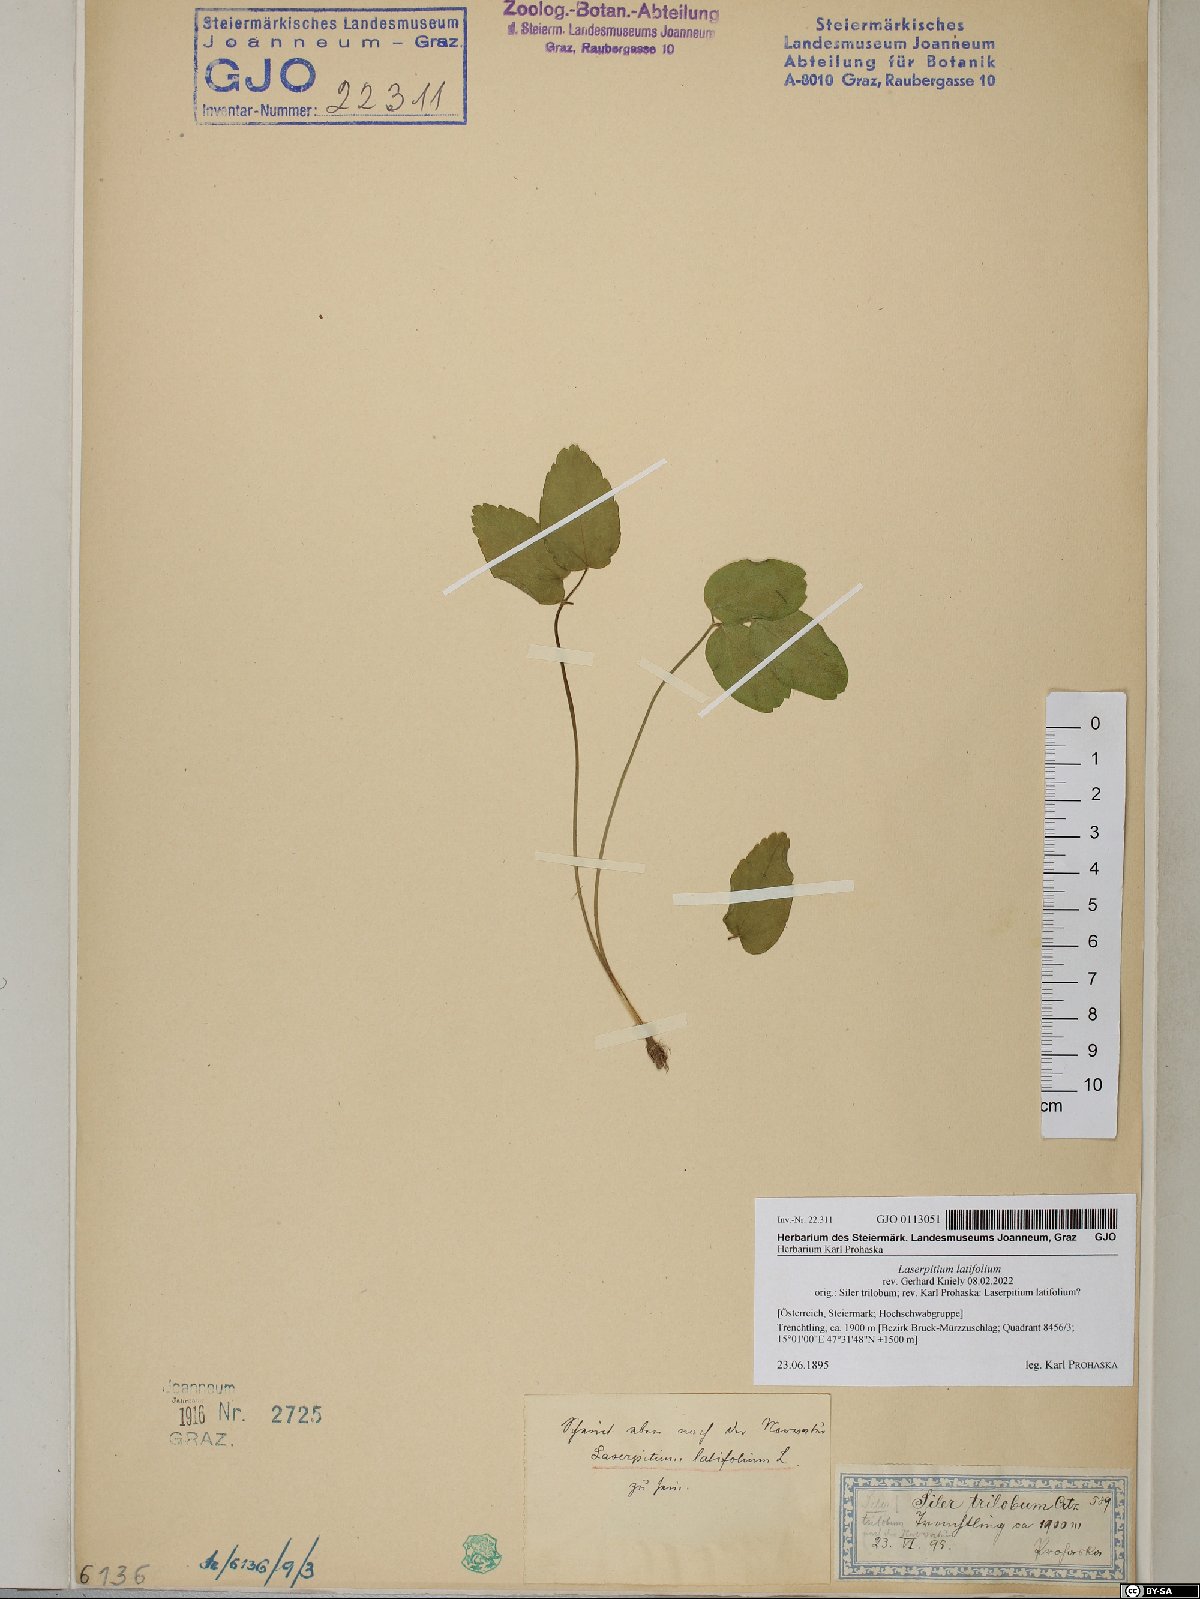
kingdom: Plantae
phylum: Tracheophyta
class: Magnoliopsida
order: Apiales
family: Apiaceae
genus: Laserpitium
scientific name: Laserpitium latifolium
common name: Broadleaf sermountain
